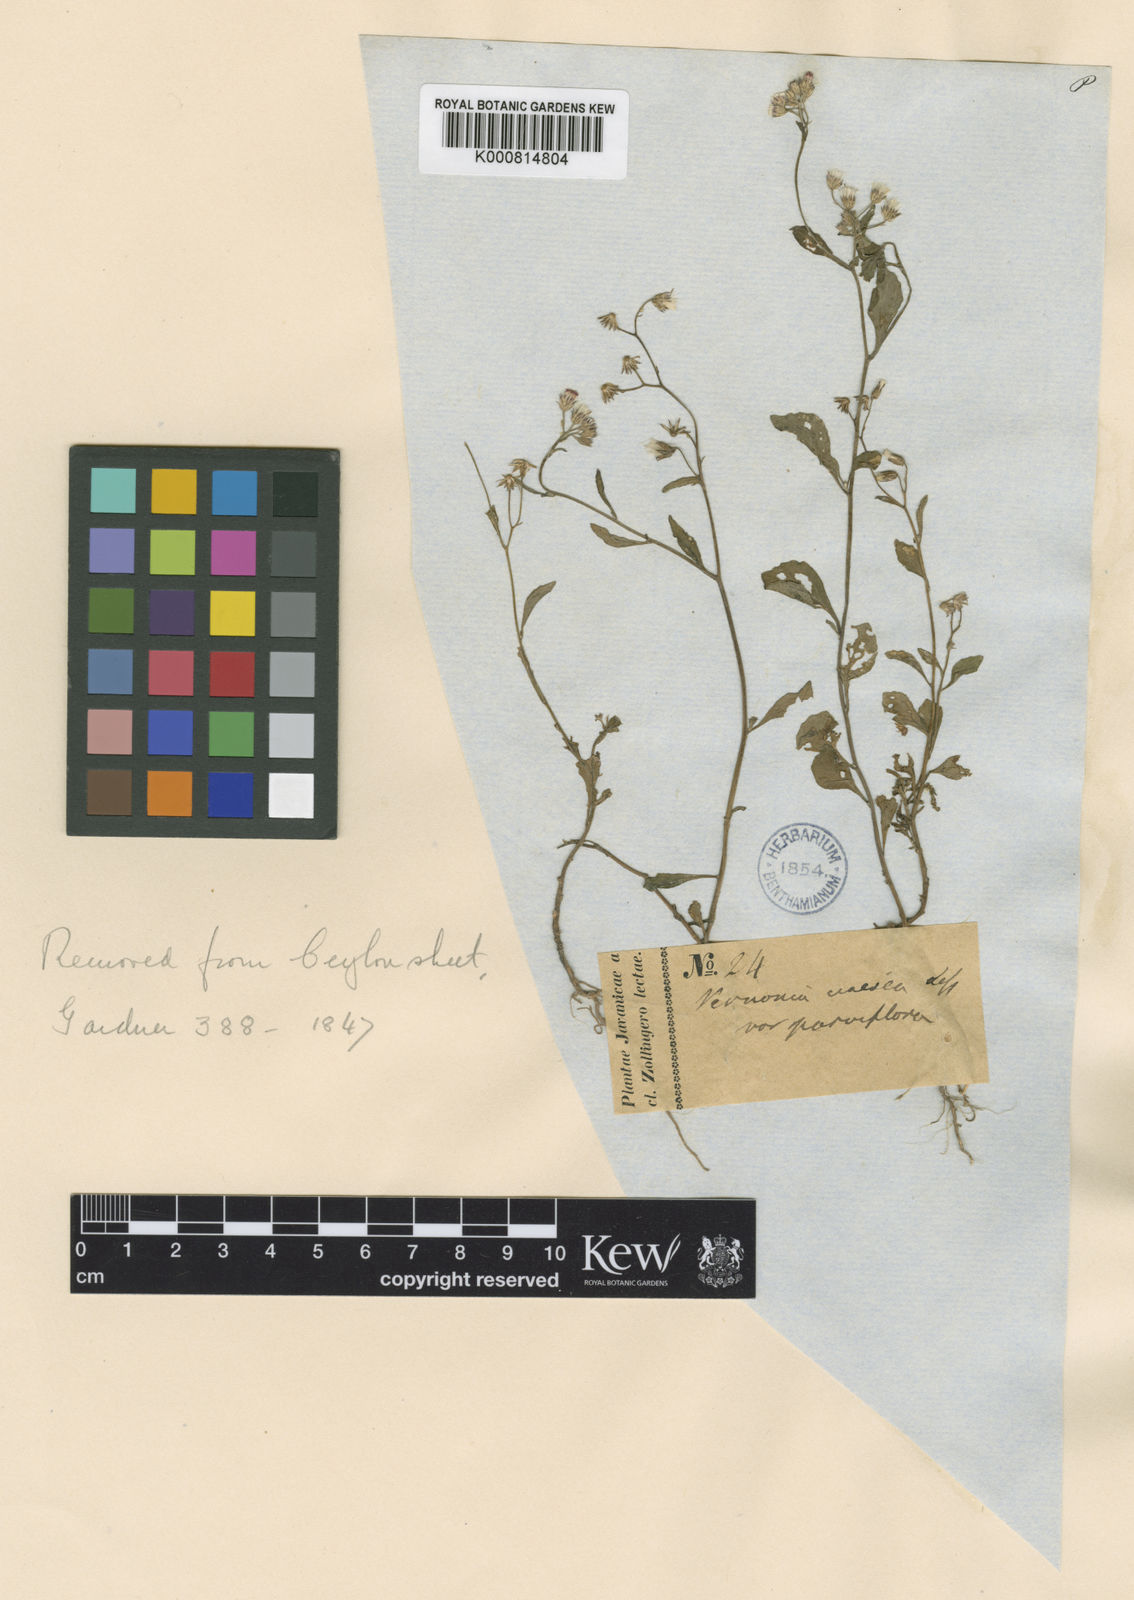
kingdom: Plantae
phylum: Tracheophyta
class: Magnoliopsida
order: Asterales
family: Asteraceae
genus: Cyanthillium
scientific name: Cyanthillium cinereum
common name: Little ironweed
